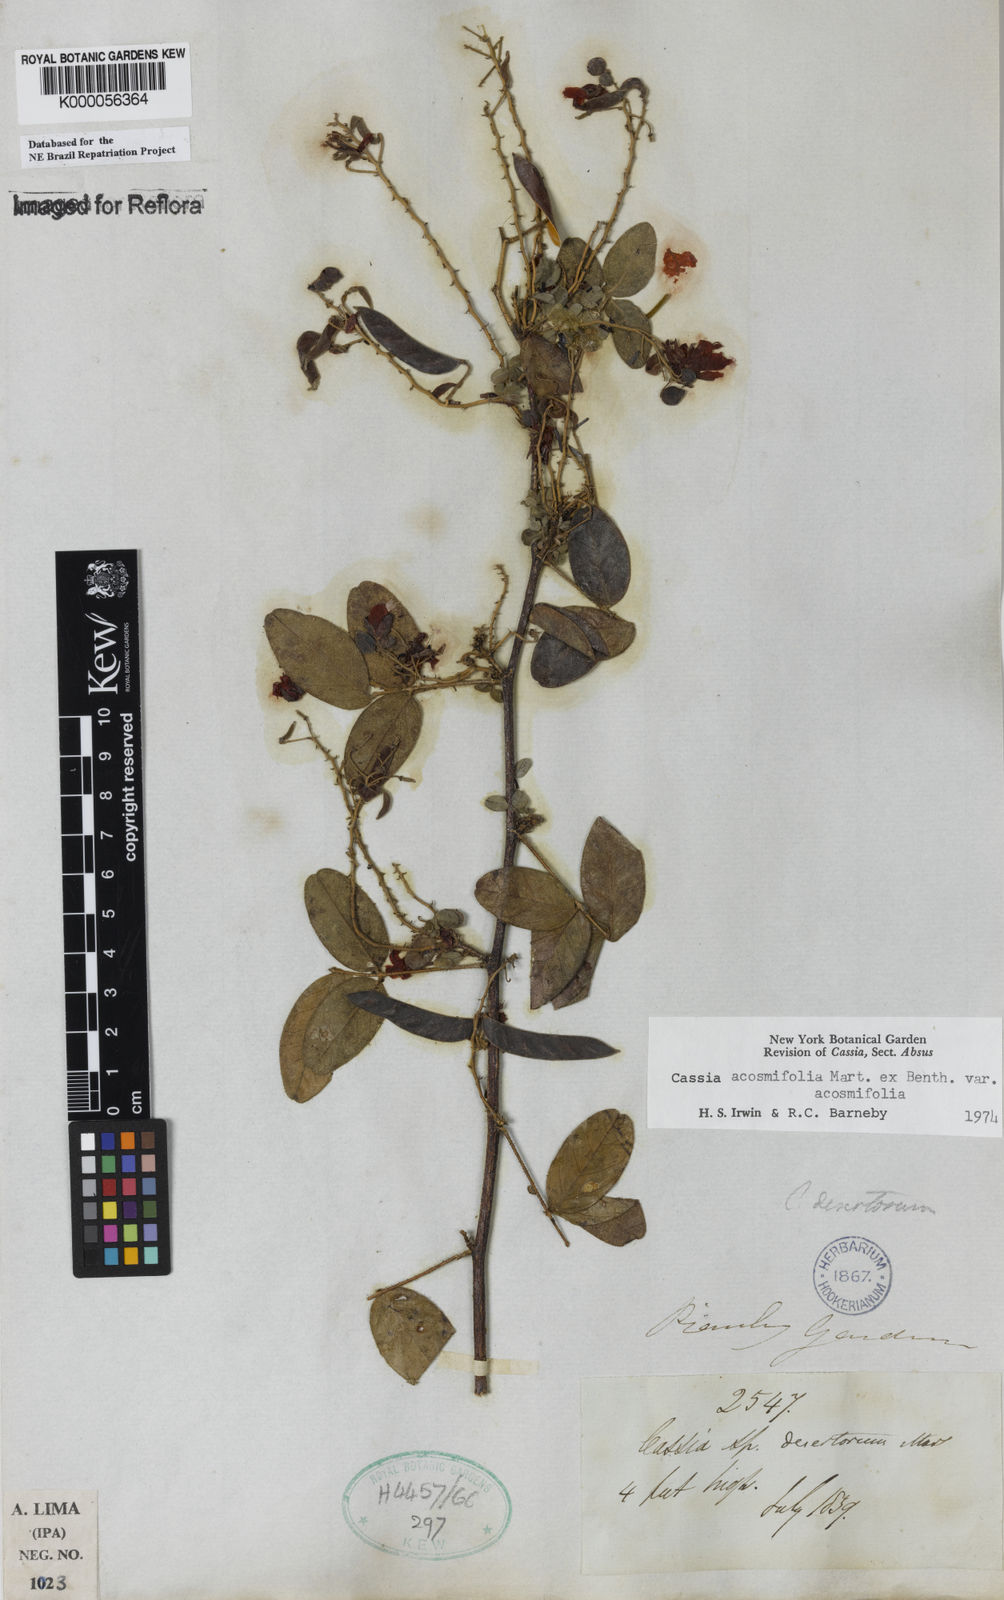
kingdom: Plantae
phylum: Tracheophyta
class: Magnoliopsida
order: Fabales
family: Fabaceae
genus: Chamaecrista
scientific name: Chamaecrista acosmifolia
